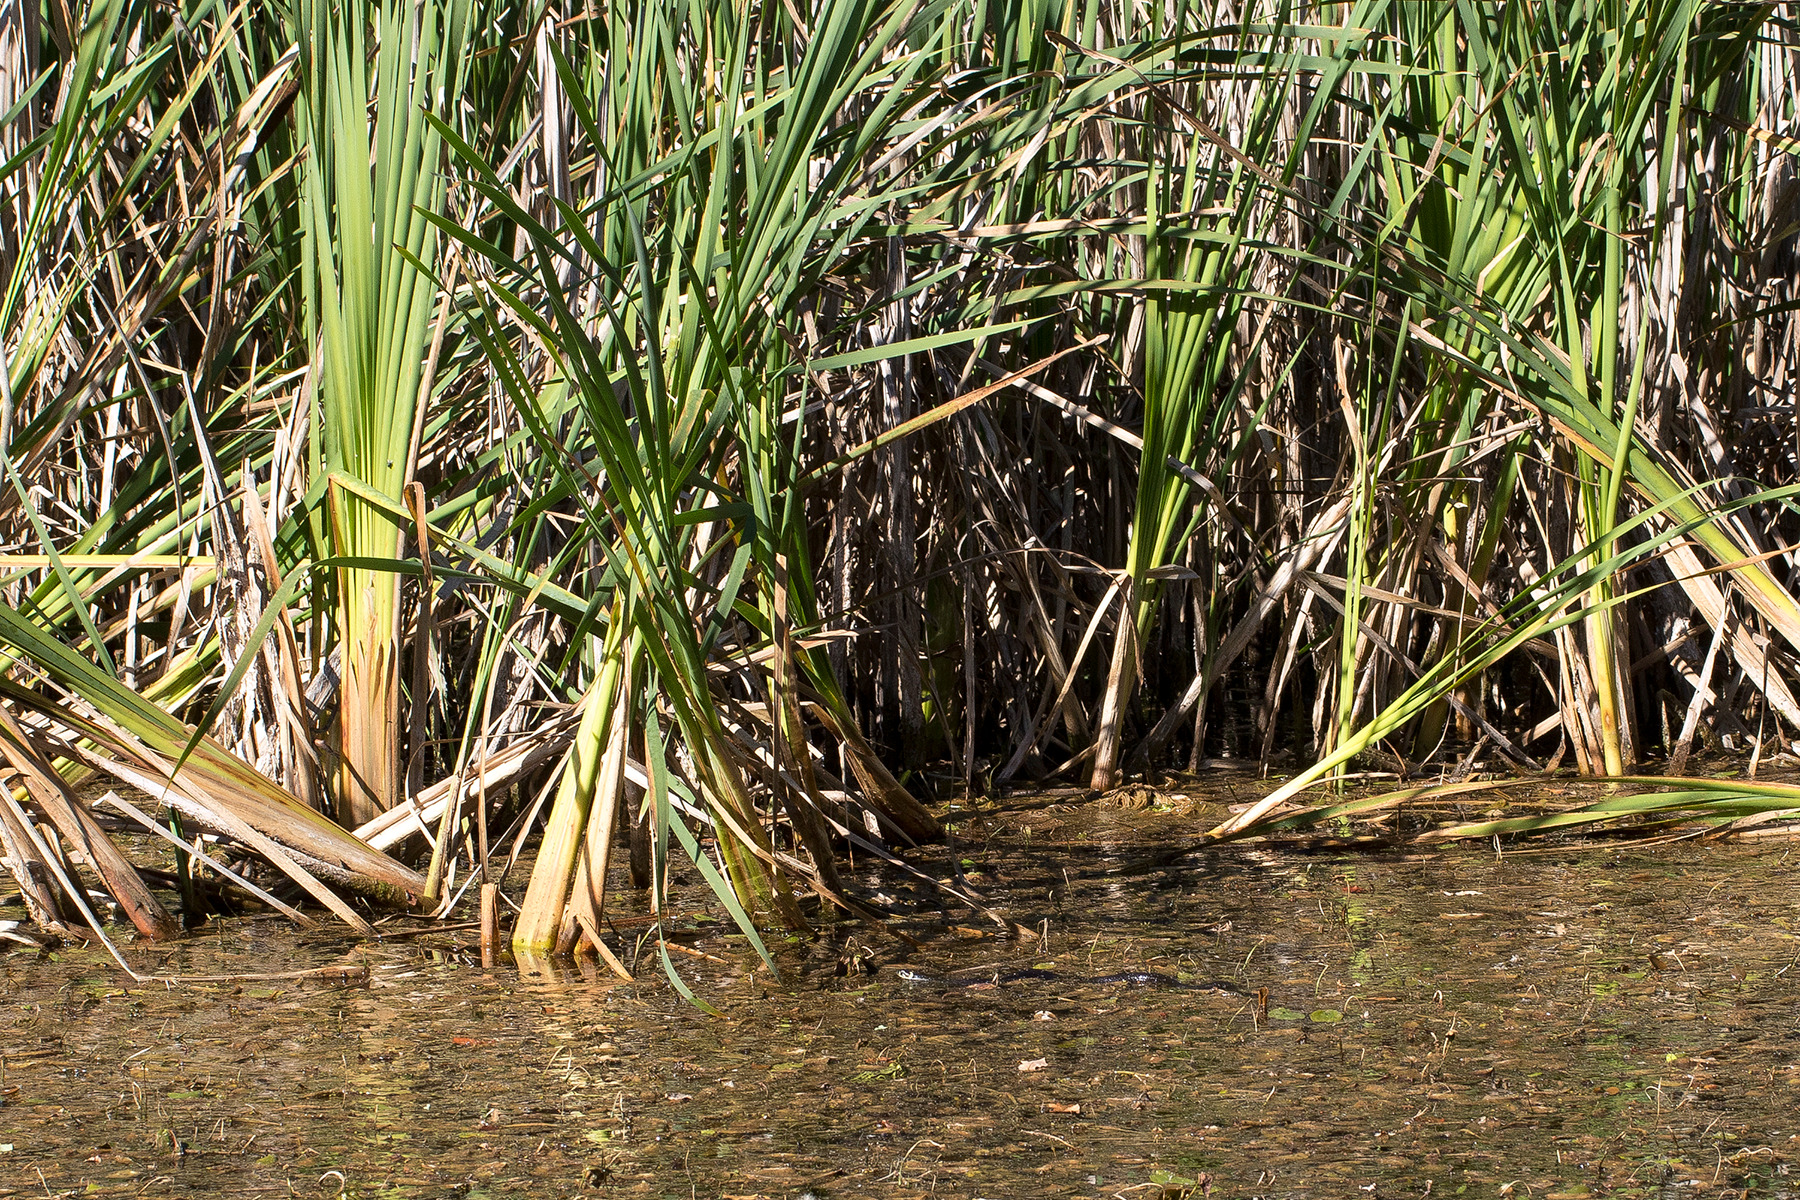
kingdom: Animalia
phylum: Chordata
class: Squamata
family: Colubridae
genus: Natrix
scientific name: Natrix natrix
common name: Snog
